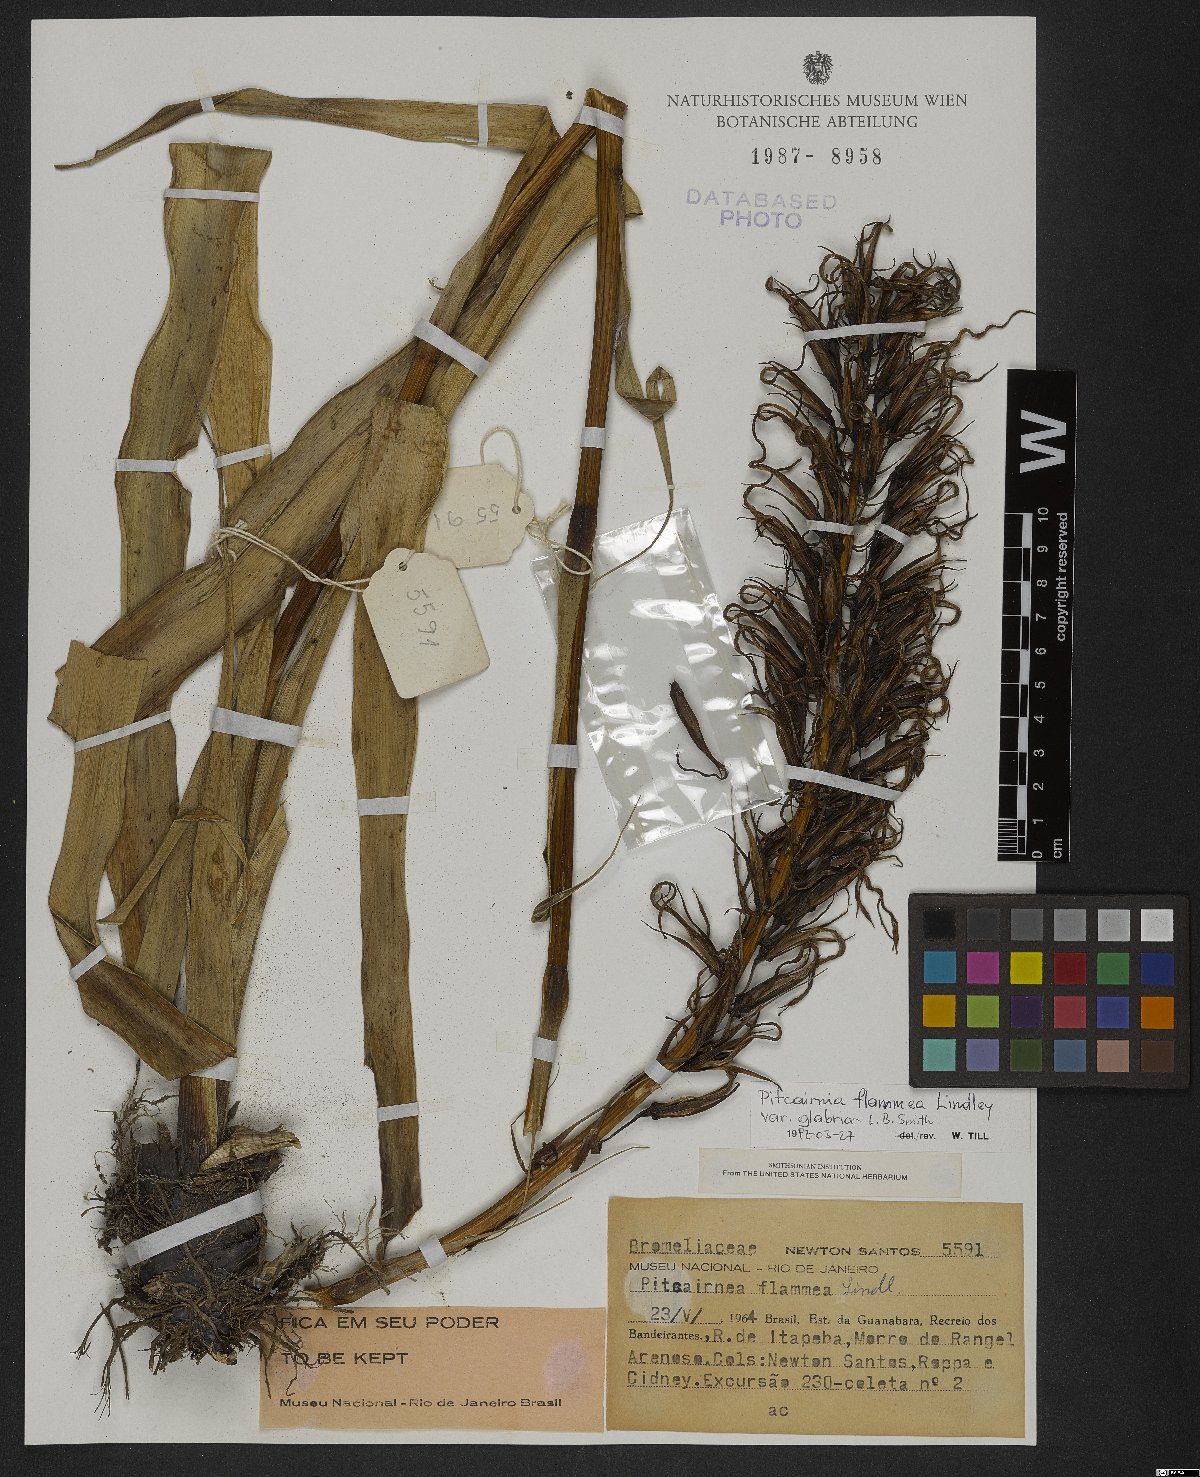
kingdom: Plantae
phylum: Tracheophyta
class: Liliopsida
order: Poales
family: Bromeliaceae
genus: Pitcairnia
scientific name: Pitcairnia flammea
